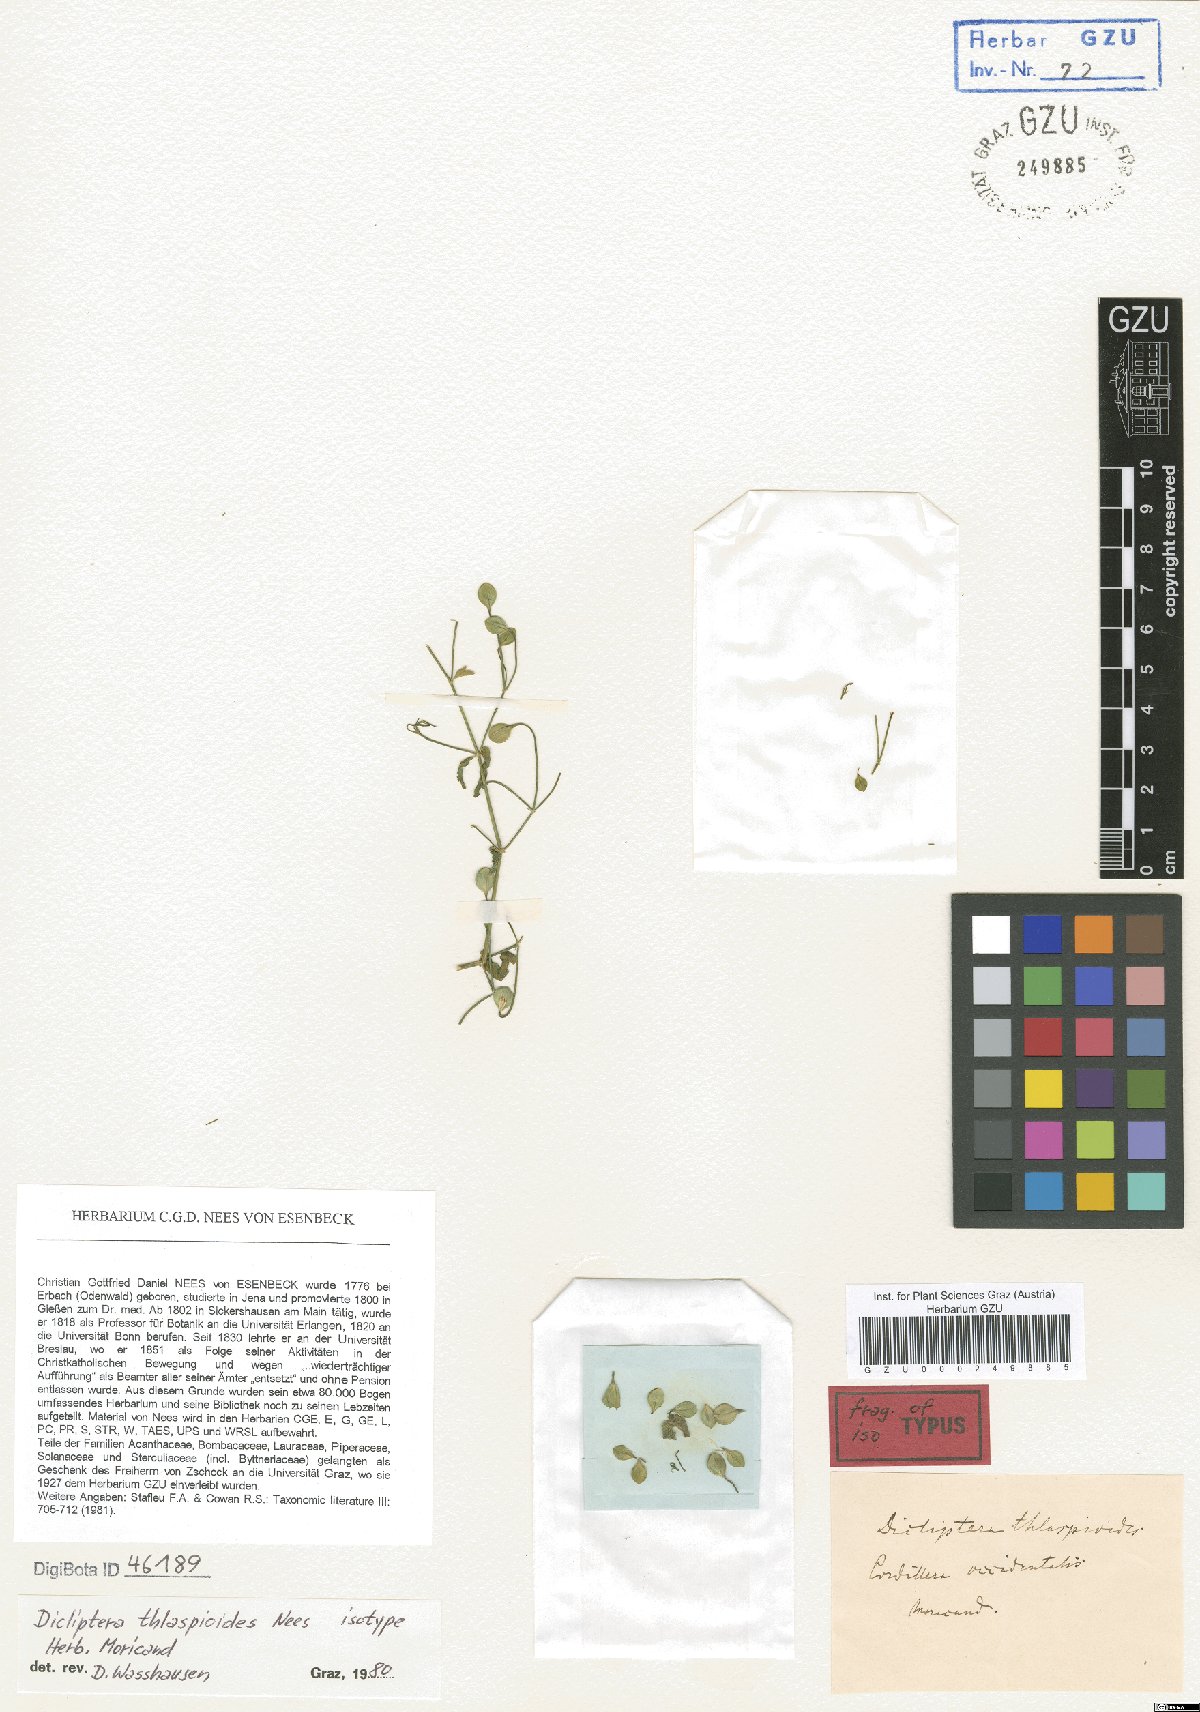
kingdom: Plantae
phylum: Tracheophyta
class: Magnoliopsida
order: Lamiales
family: Acanthaceae
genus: Dicliptera
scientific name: Dicliptera thlaspioides
